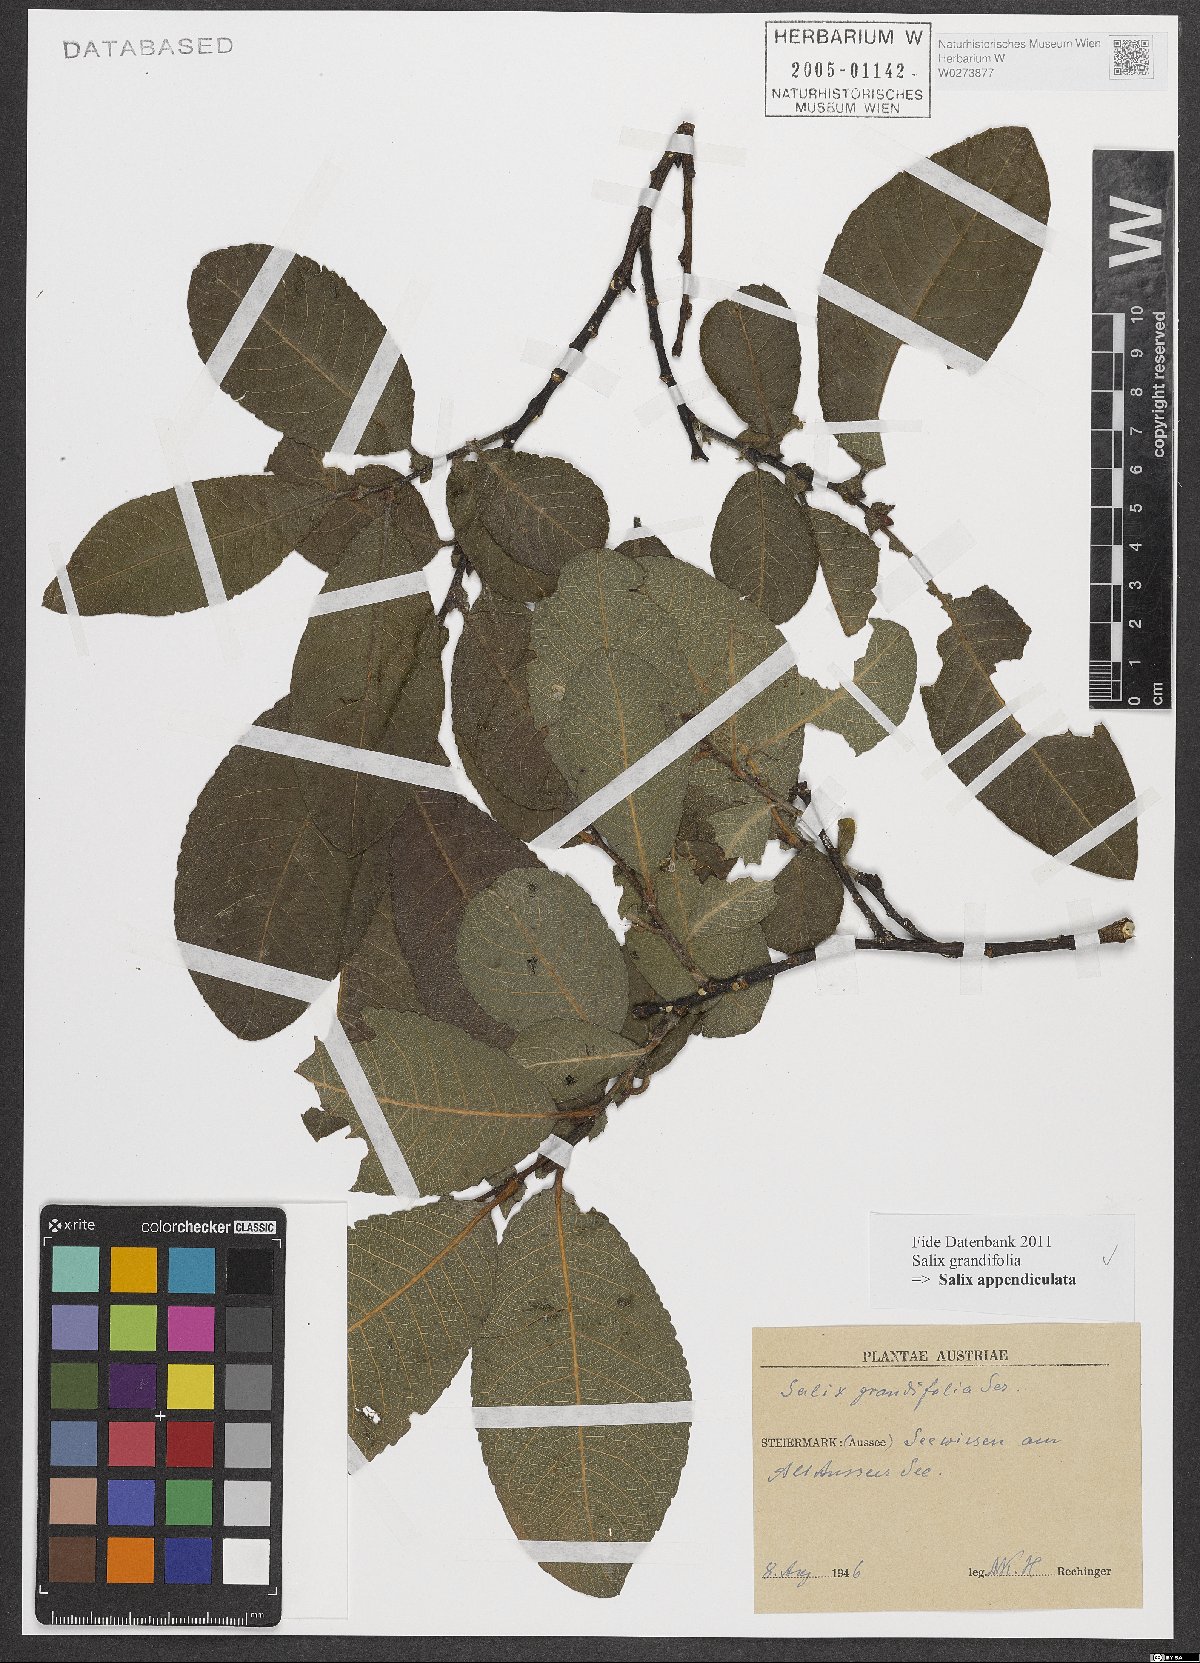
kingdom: Plantae
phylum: Tracheophyta
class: Magnoliopsida
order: Malpighiales
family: Salicaceae
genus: Salix
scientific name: Salix appendiculata
